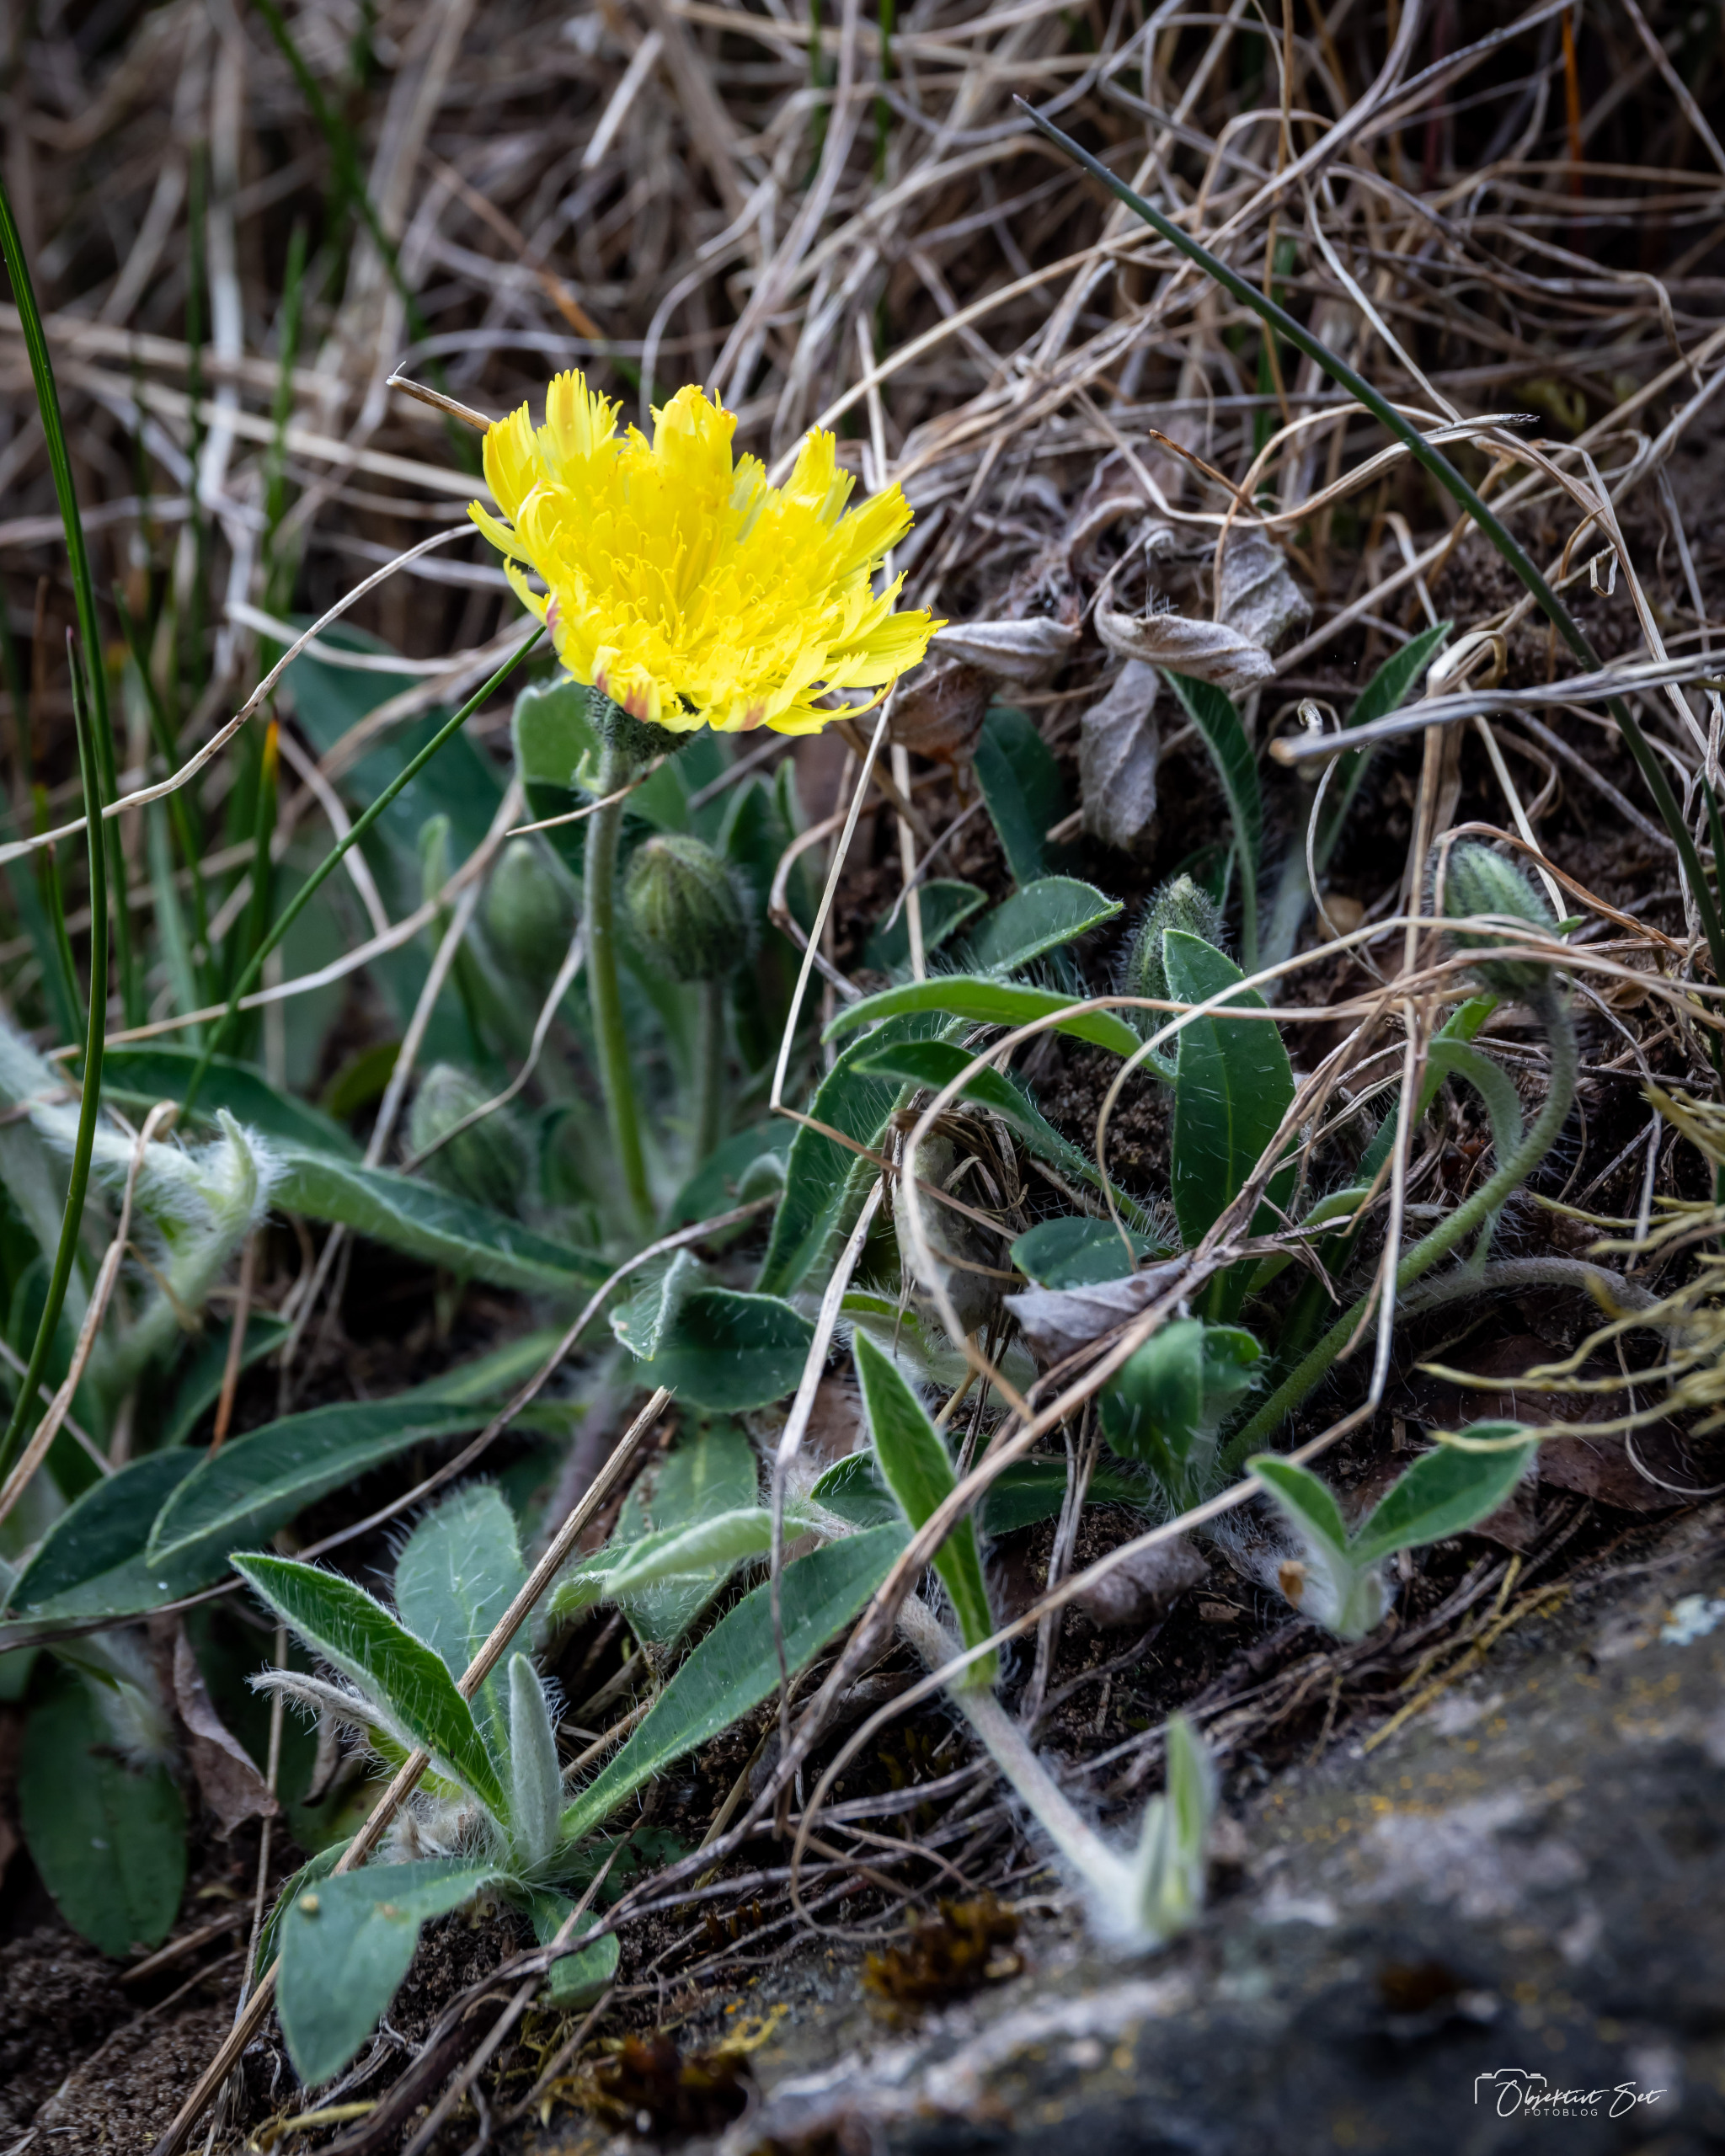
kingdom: Plantae
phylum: Tracheophyta
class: Magnoliopsida
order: Asterales
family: Asteraceae
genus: Pilosella
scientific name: Pilosella officinarum
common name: Håret høgeurt
